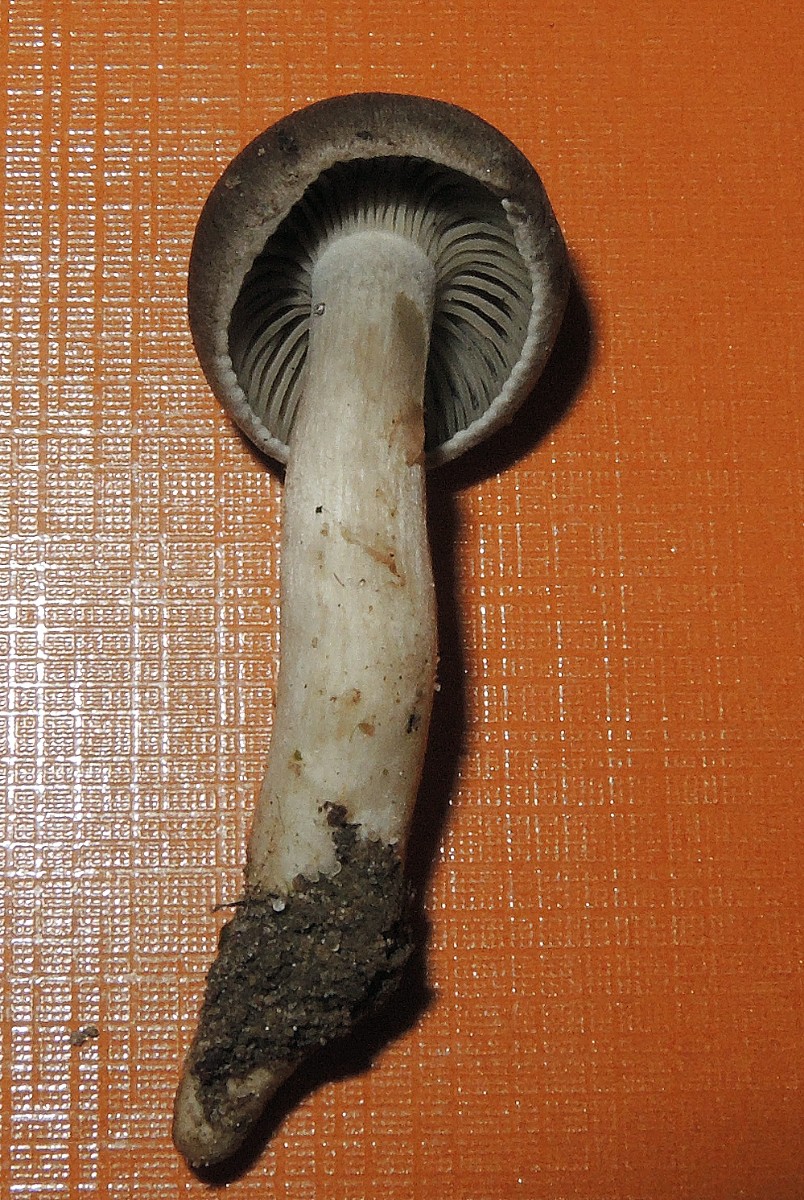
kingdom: Fungi
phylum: Basidiomycota
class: Agaricomycetes
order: Agaricales
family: Pseudoclitocybaceae
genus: Musumecia
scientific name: Musumecia vermicularis
